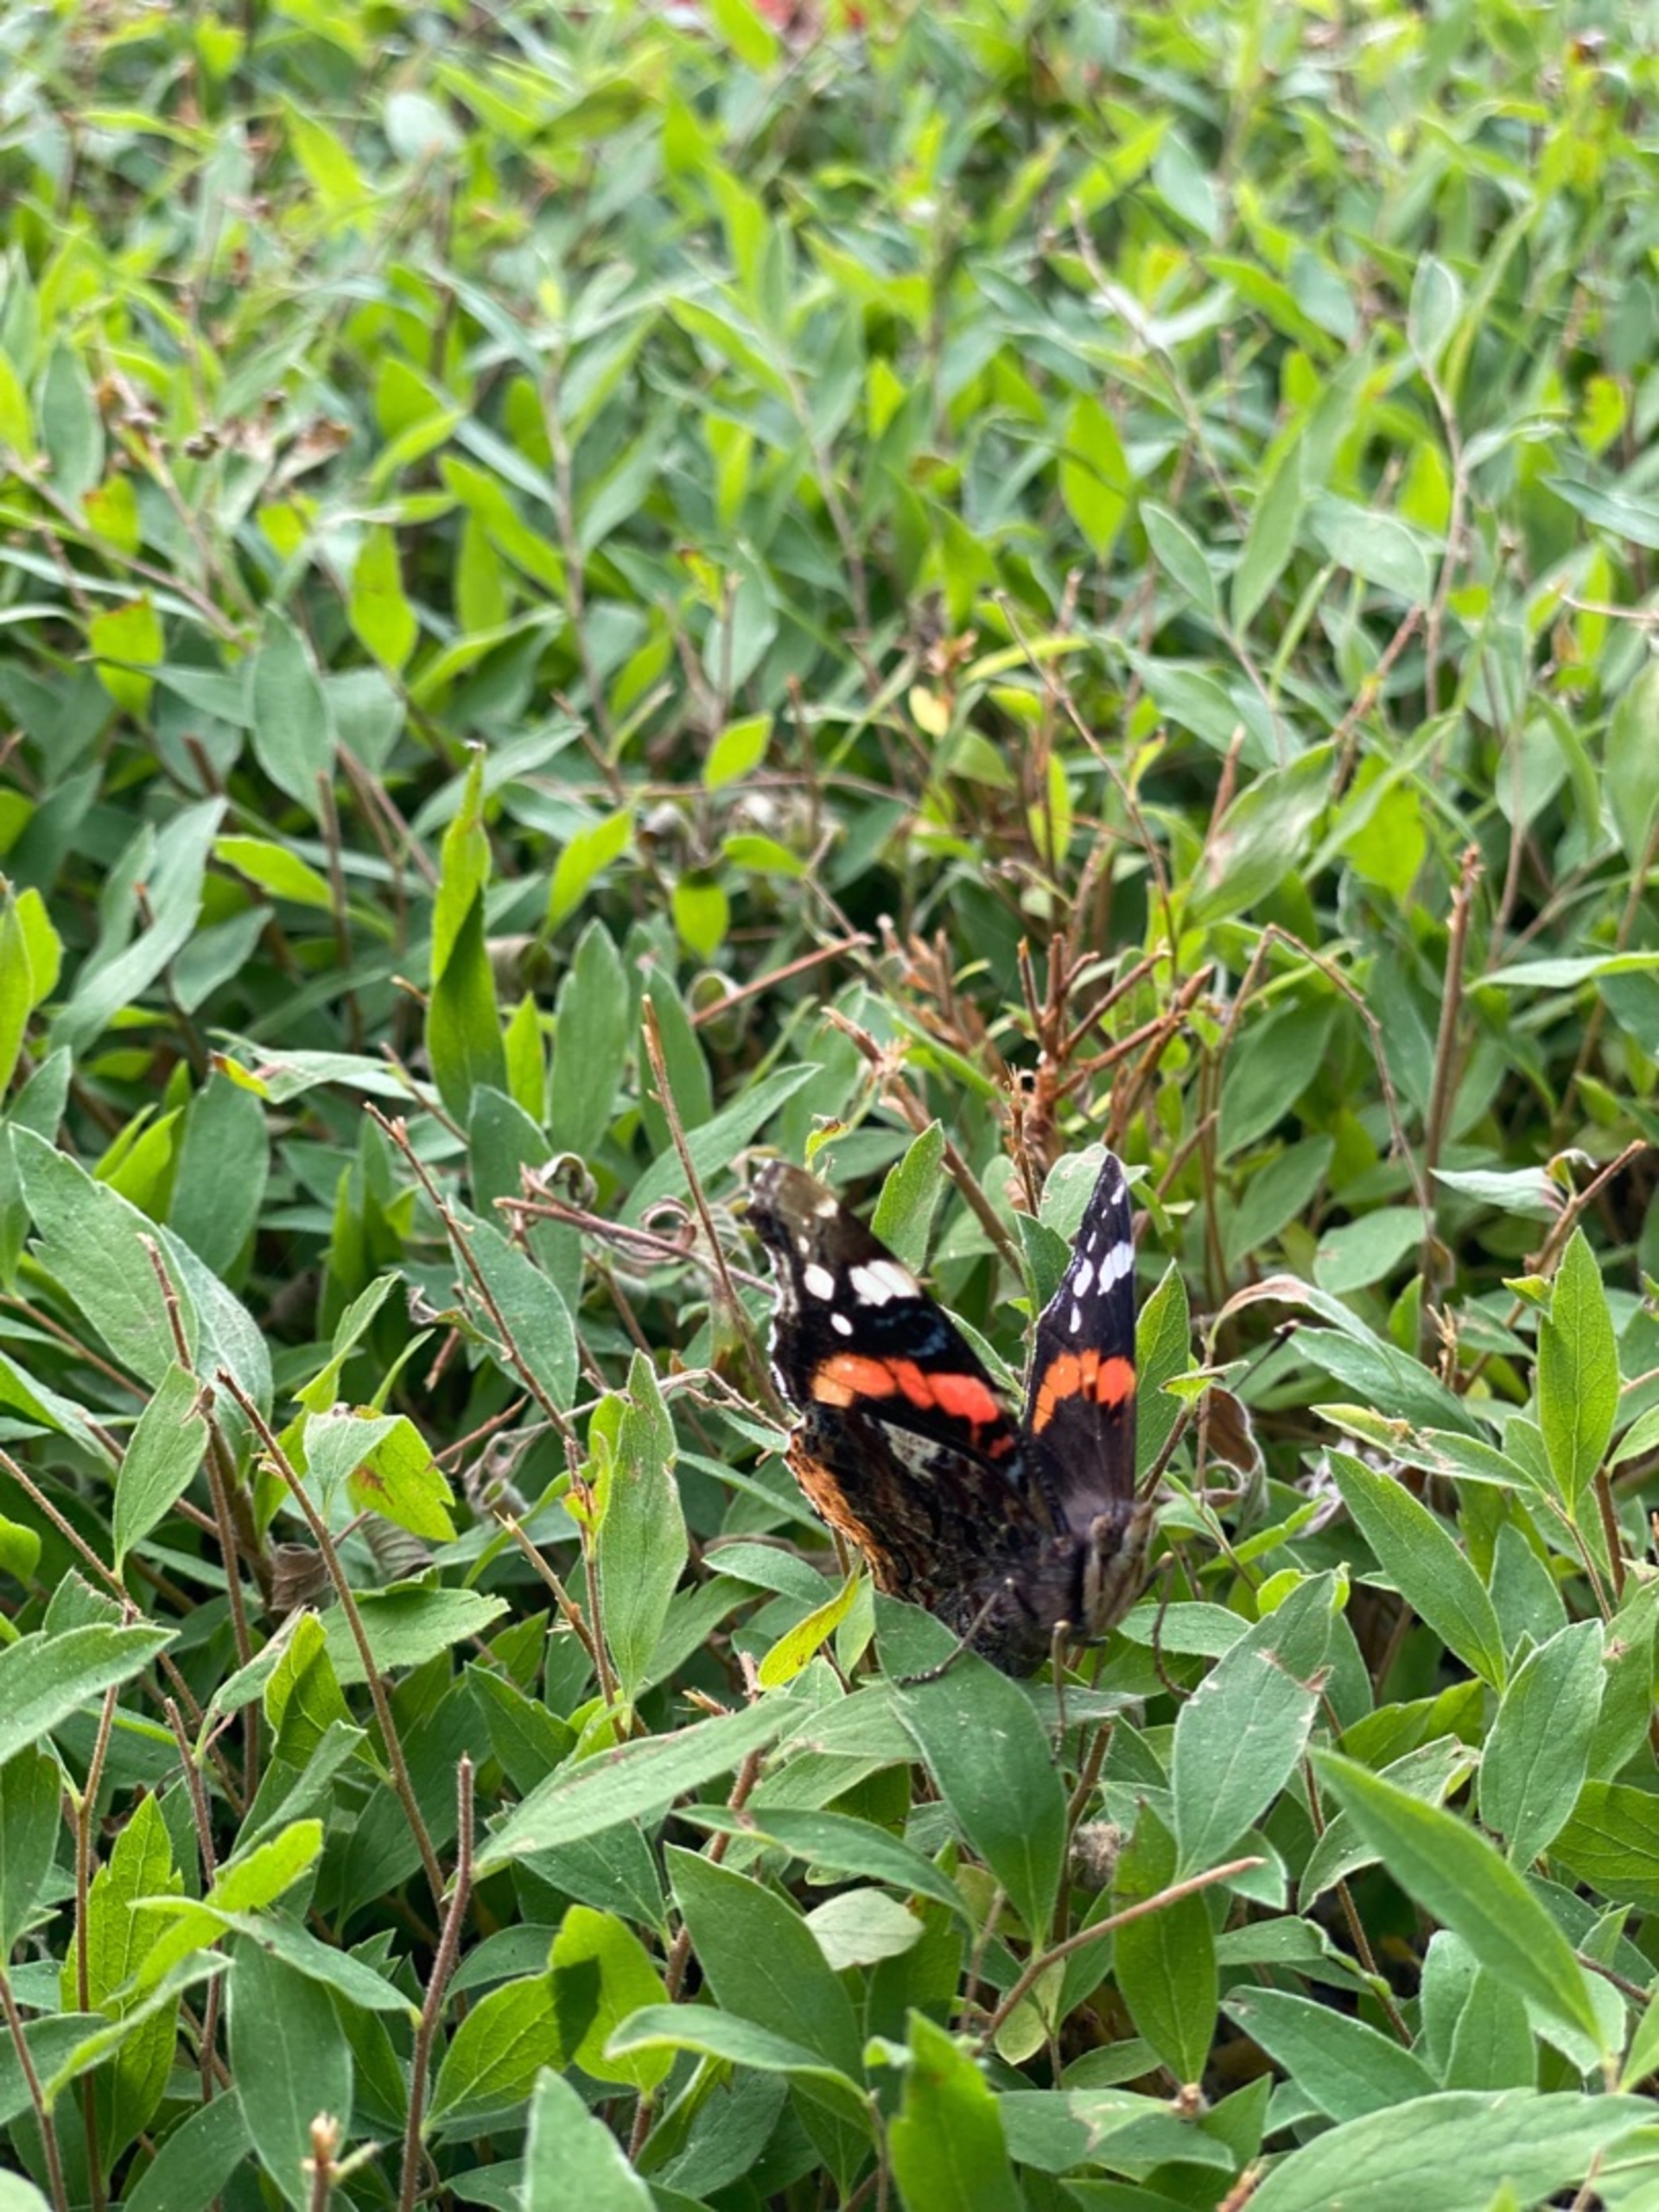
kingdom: Animalia
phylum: Arthropoda
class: Insecta
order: Lepidoptera
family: Nymphalidae
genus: Vanessa
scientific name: Vanessa atalanta
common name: Admiral
